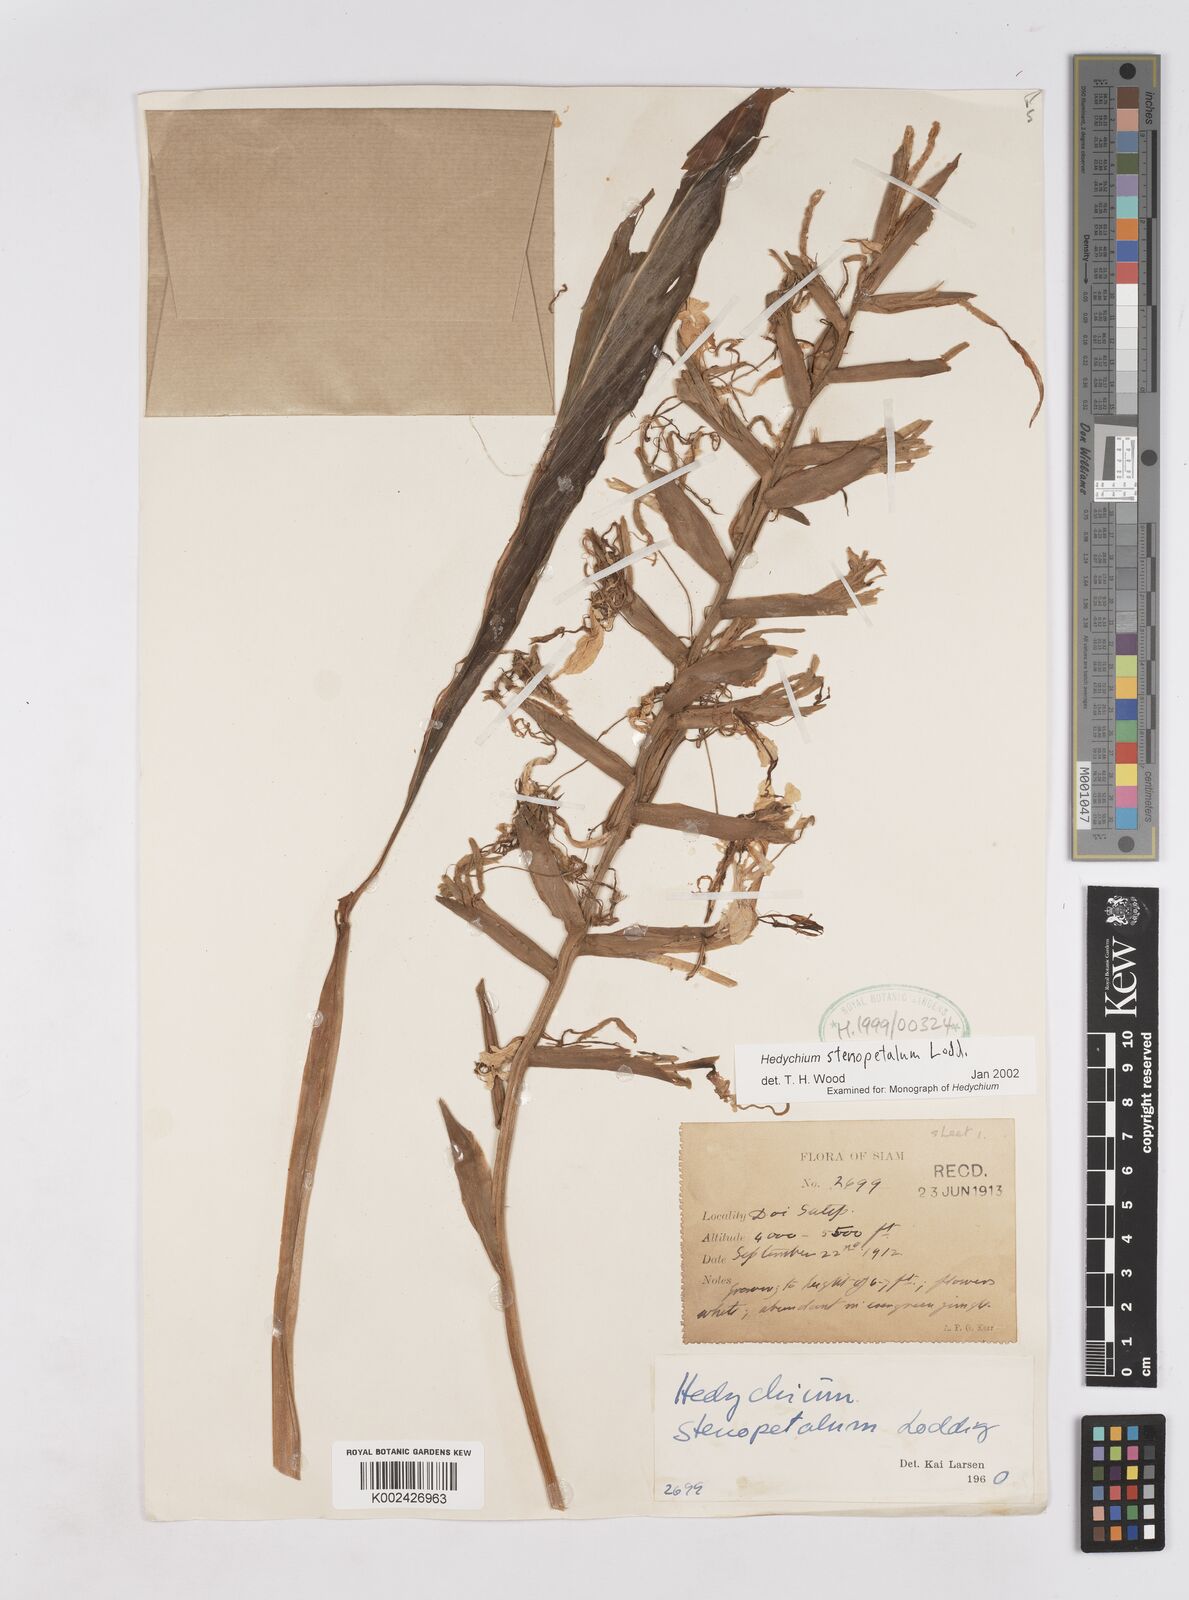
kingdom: Plantae
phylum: Tracheophyta
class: Liliopsida
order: Zingiberales
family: Zingiberaceae
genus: Hedychium
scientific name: Hedychium stenopetalum
